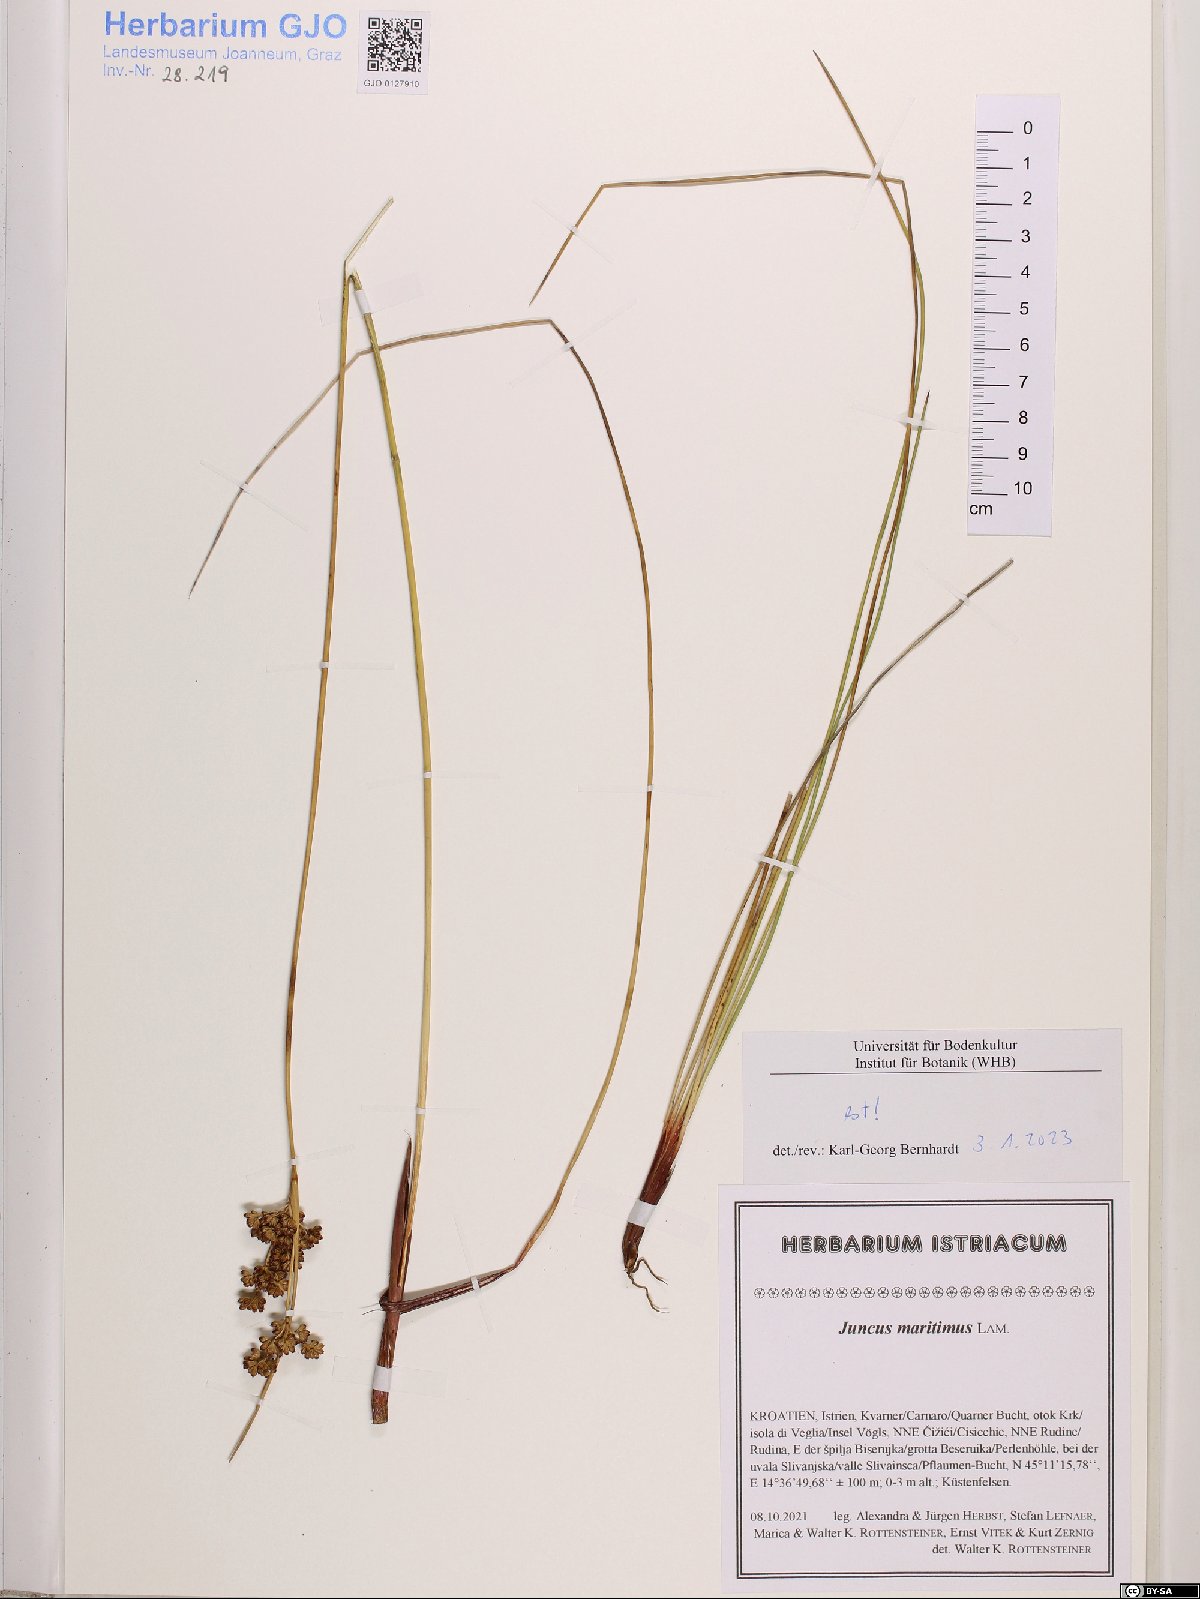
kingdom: Plantae
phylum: Tracheophyta
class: Liliopsida
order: Poales
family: Juncaceae
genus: Juncus
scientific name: Juncus maritimus
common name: Sea rush
